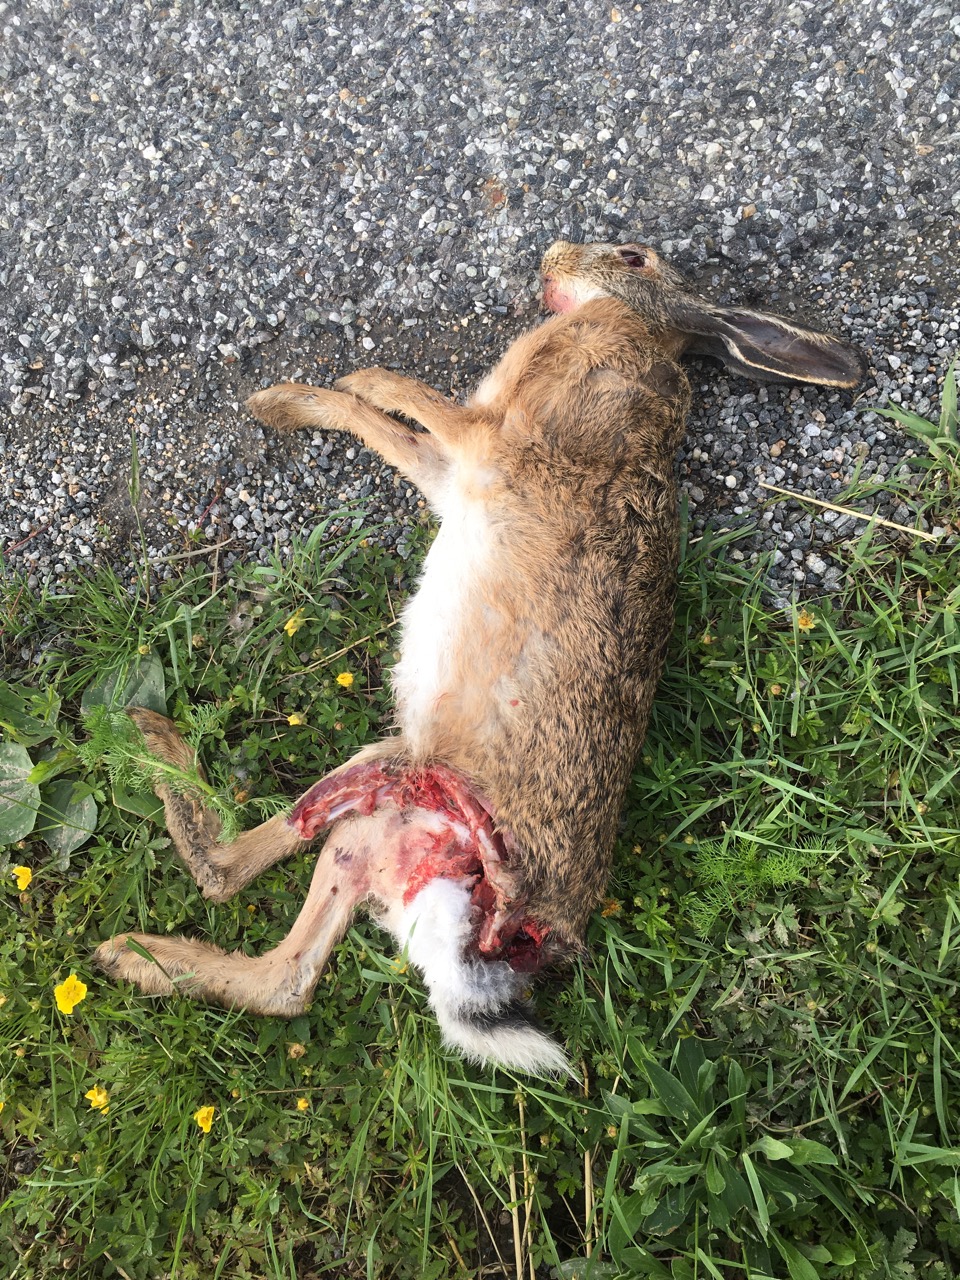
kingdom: Animalia
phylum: Chordata
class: Mammalia
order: Lagomorpha
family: Leporidae
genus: Lepus
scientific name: Lepus europaeus
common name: European hare
